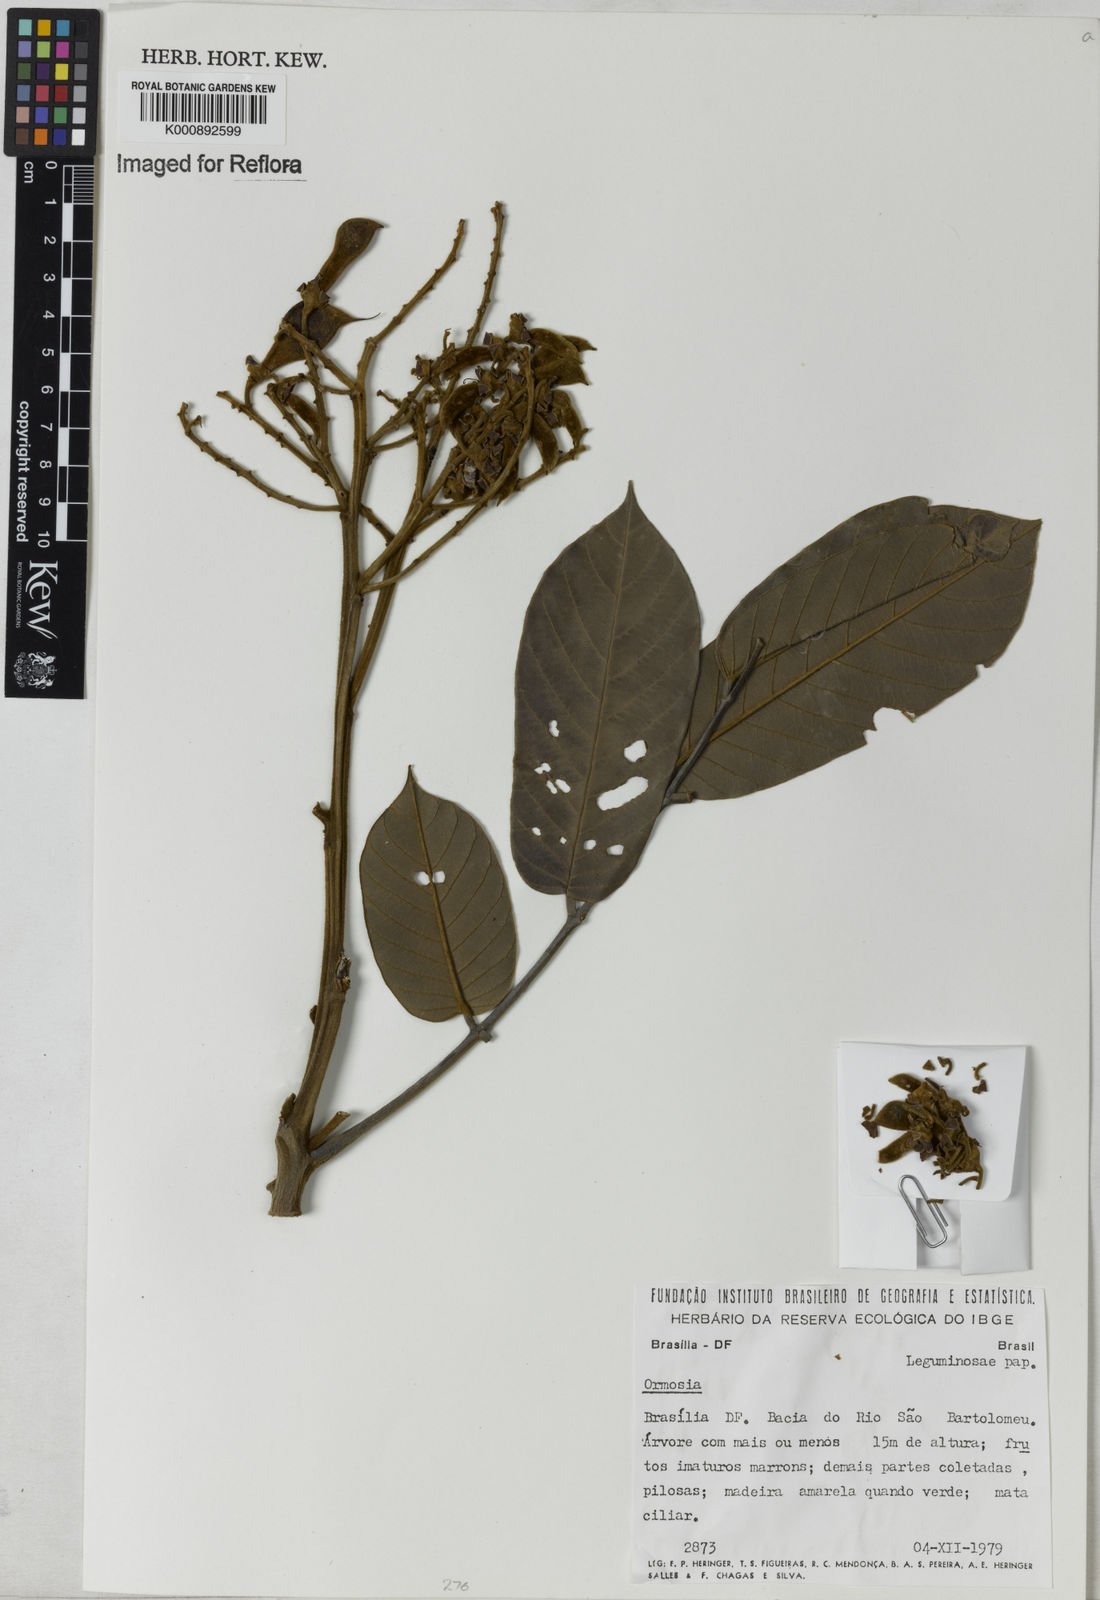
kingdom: Plantae
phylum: Tracheophyta
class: Magnoliopsida
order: Fabales
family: Fabaceae
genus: Ormosia
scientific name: Ormosia coarctata
